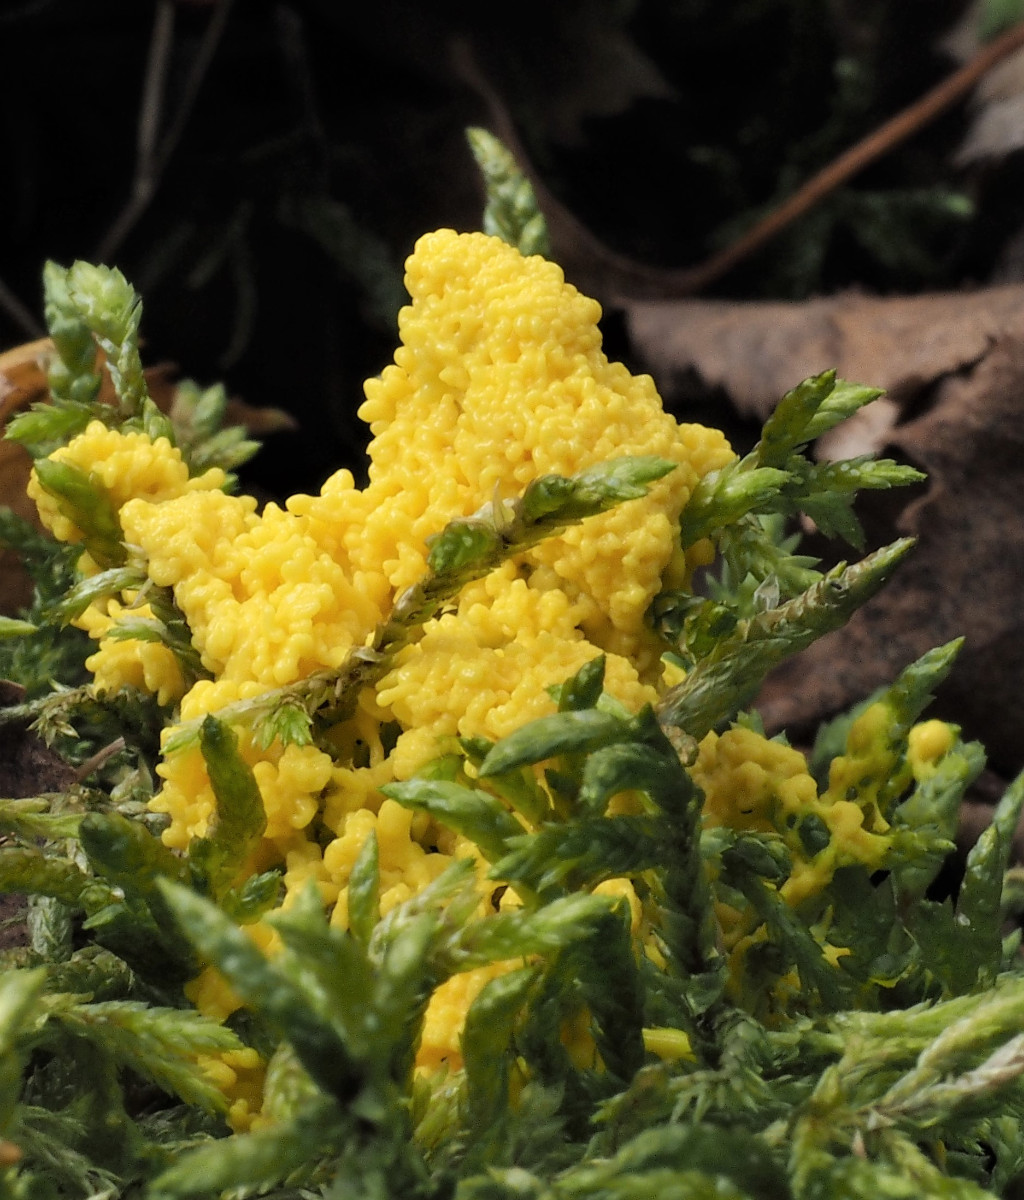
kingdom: Protozoa
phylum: Mycetozoa
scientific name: Mycetozoa
